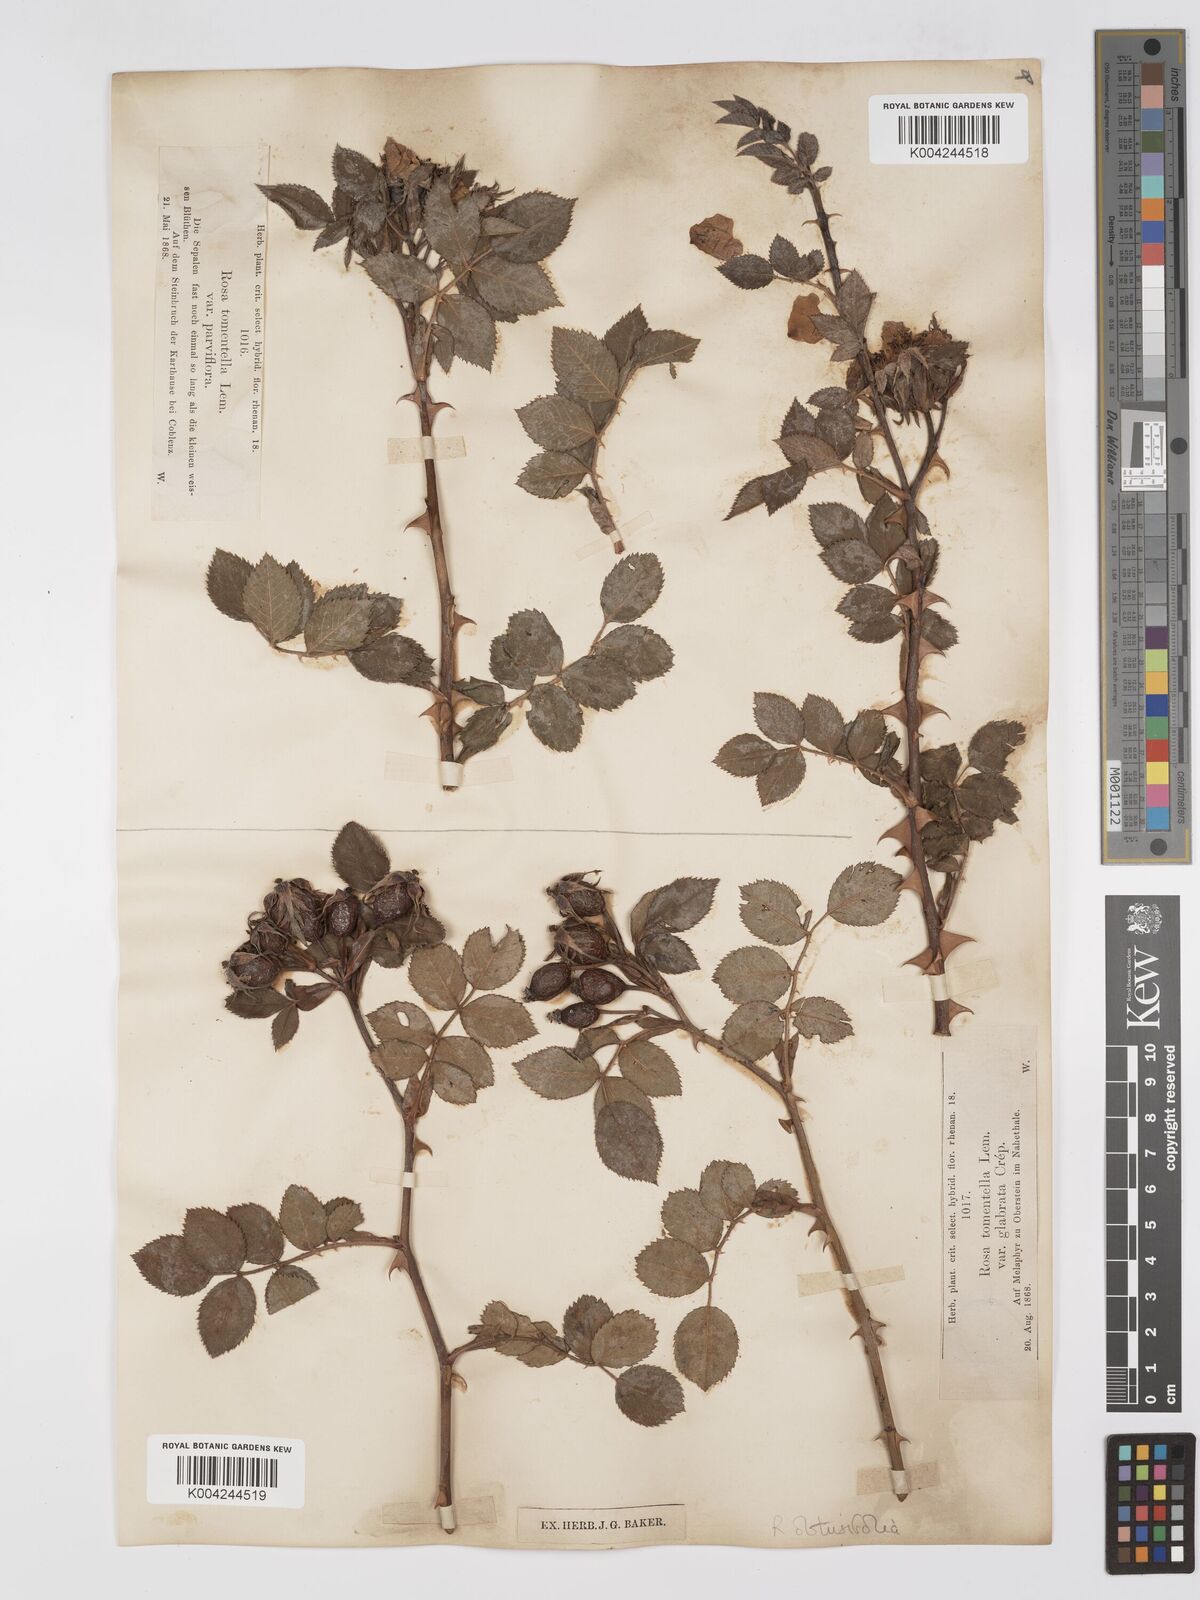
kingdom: Plantae
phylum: Tracheophyta
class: Magnoliopsida
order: Rosales
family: Rosaceae
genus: Rosa
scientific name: Rosa obtusifolia
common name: Round-leaved dog-rose
